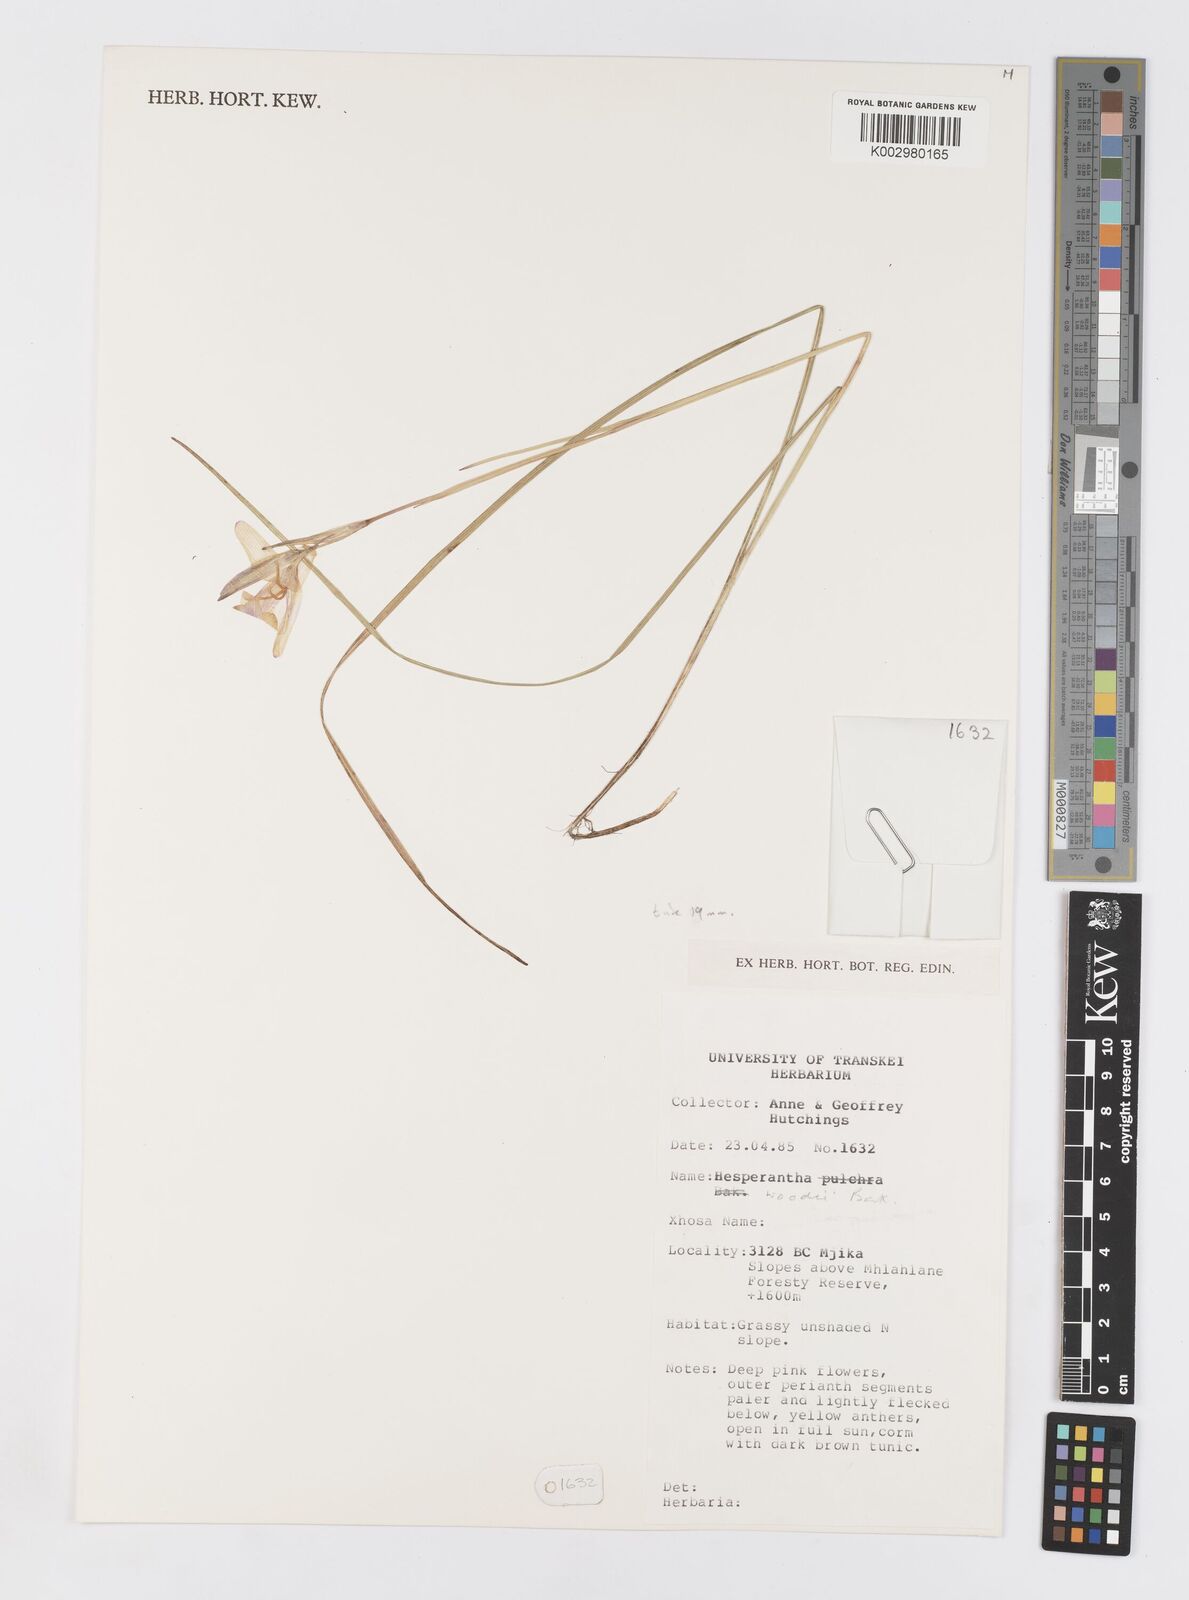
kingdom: Plantae
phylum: Tracheophyta
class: Liliopsida
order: Asparagales
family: Iridaceae
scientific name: Iridaceae
